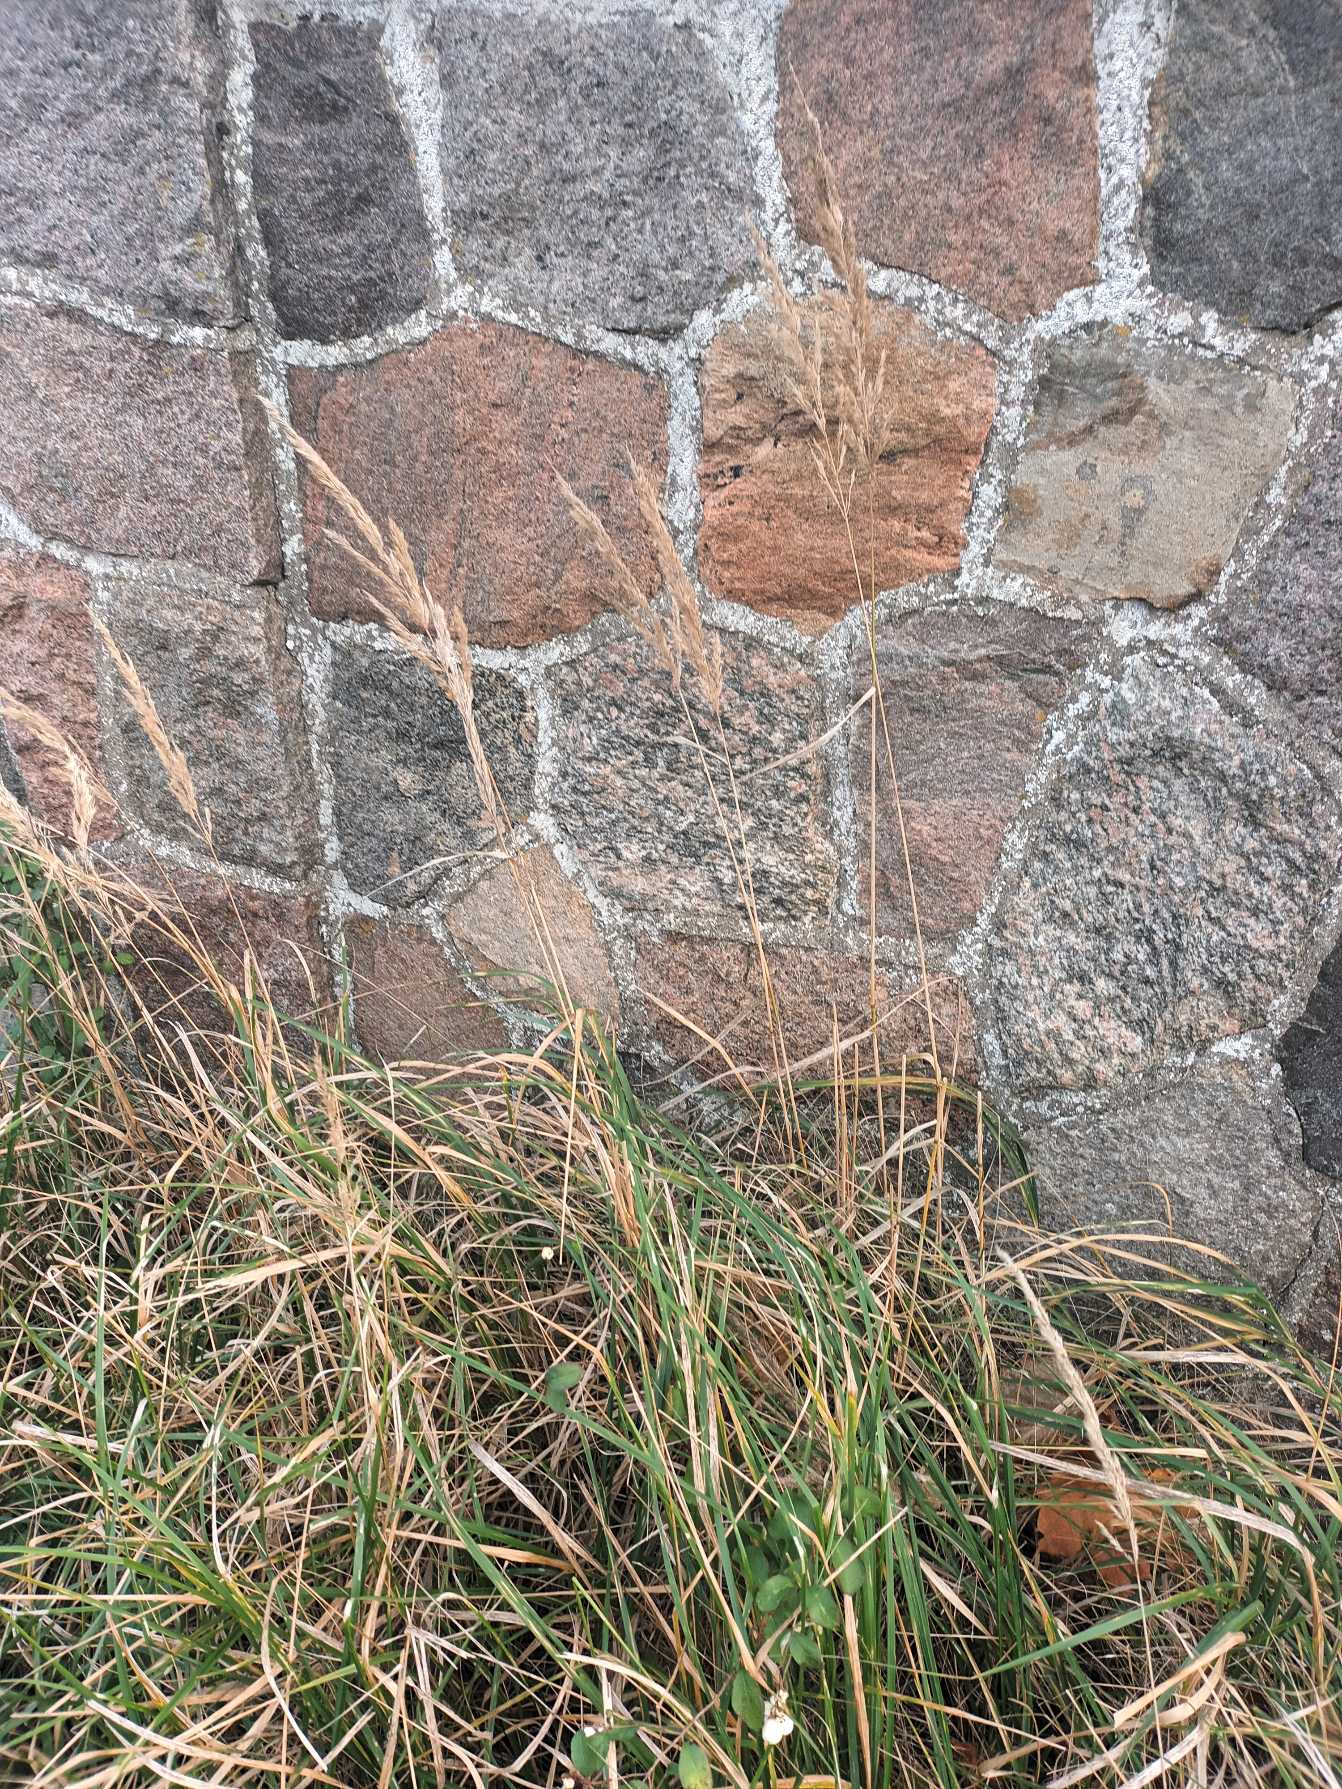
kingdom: Plantae
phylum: Tracheophyta
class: Liliopsida
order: Poales
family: Poaceae
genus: Calamagrostis
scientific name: Calamagrostis epigejos
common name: Bjerg-rørhvene
